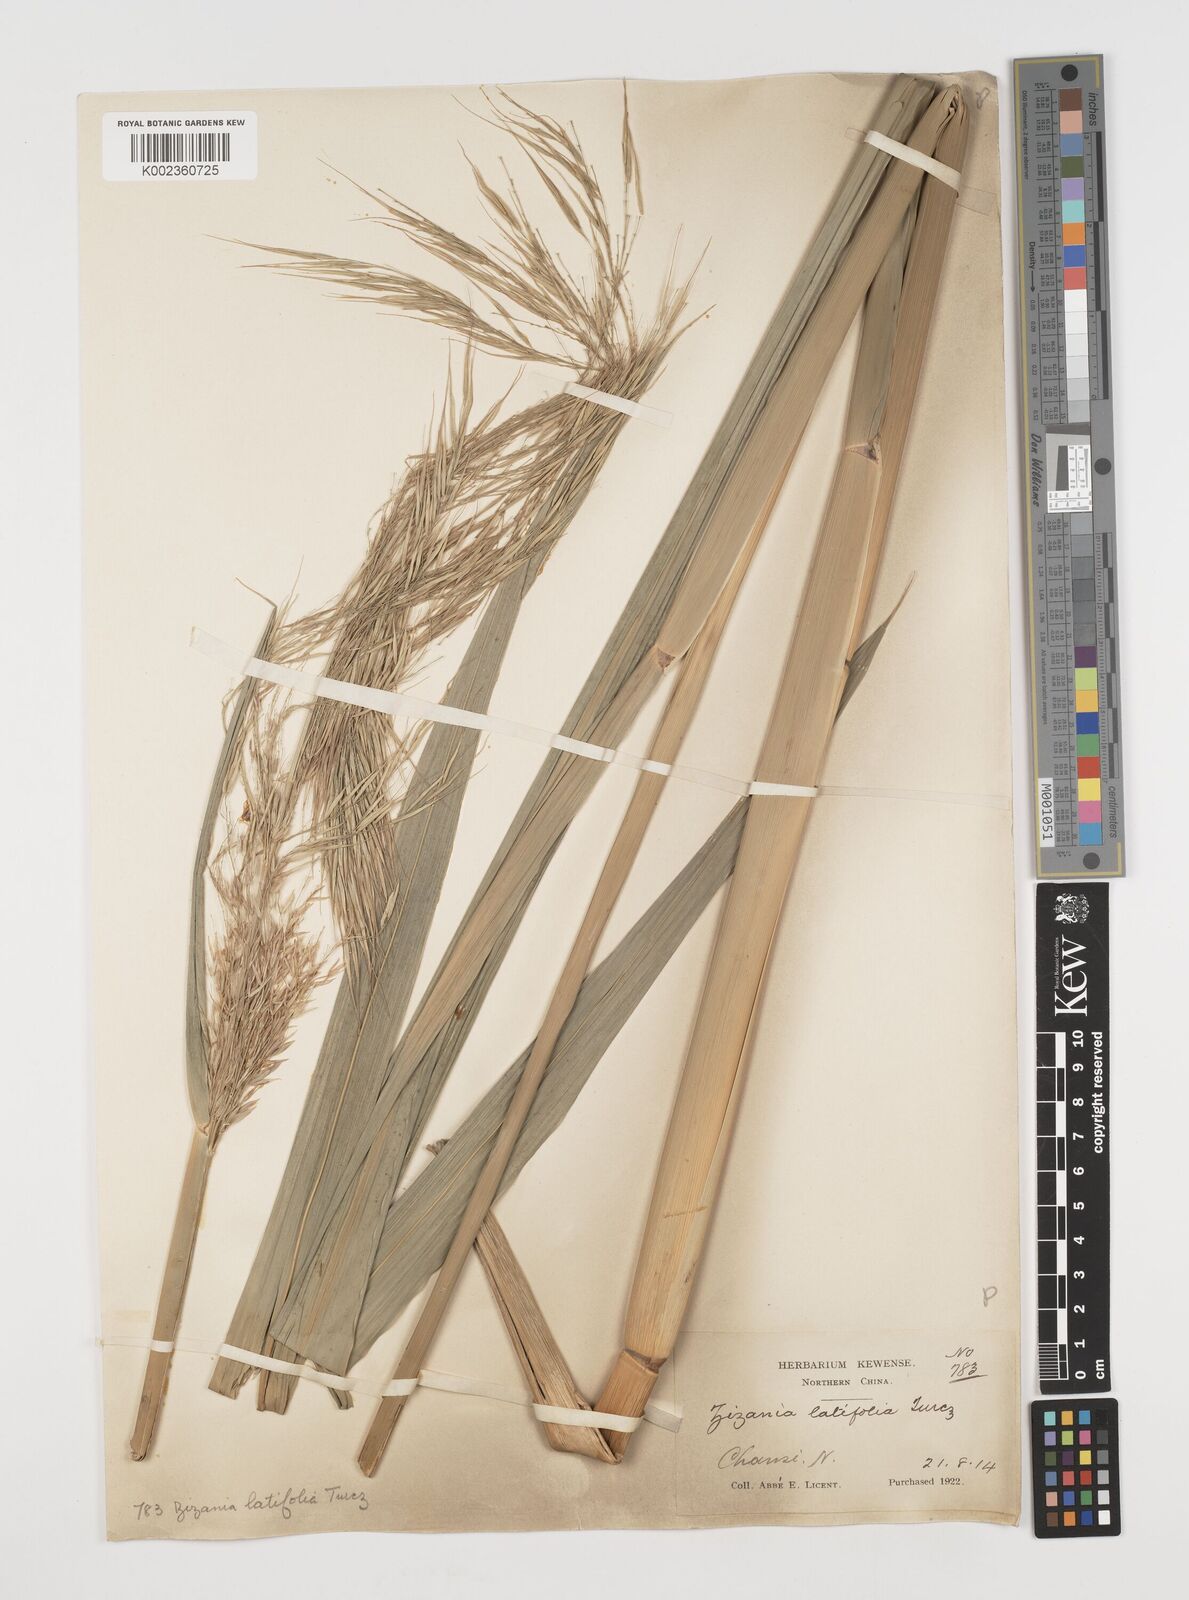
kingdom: Plantae
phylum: Tracheophyta
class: Liliopsida
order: Poales
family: Poaceae
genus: Zizania
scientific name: Zizania latifolia
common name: Manchurian wildrice
